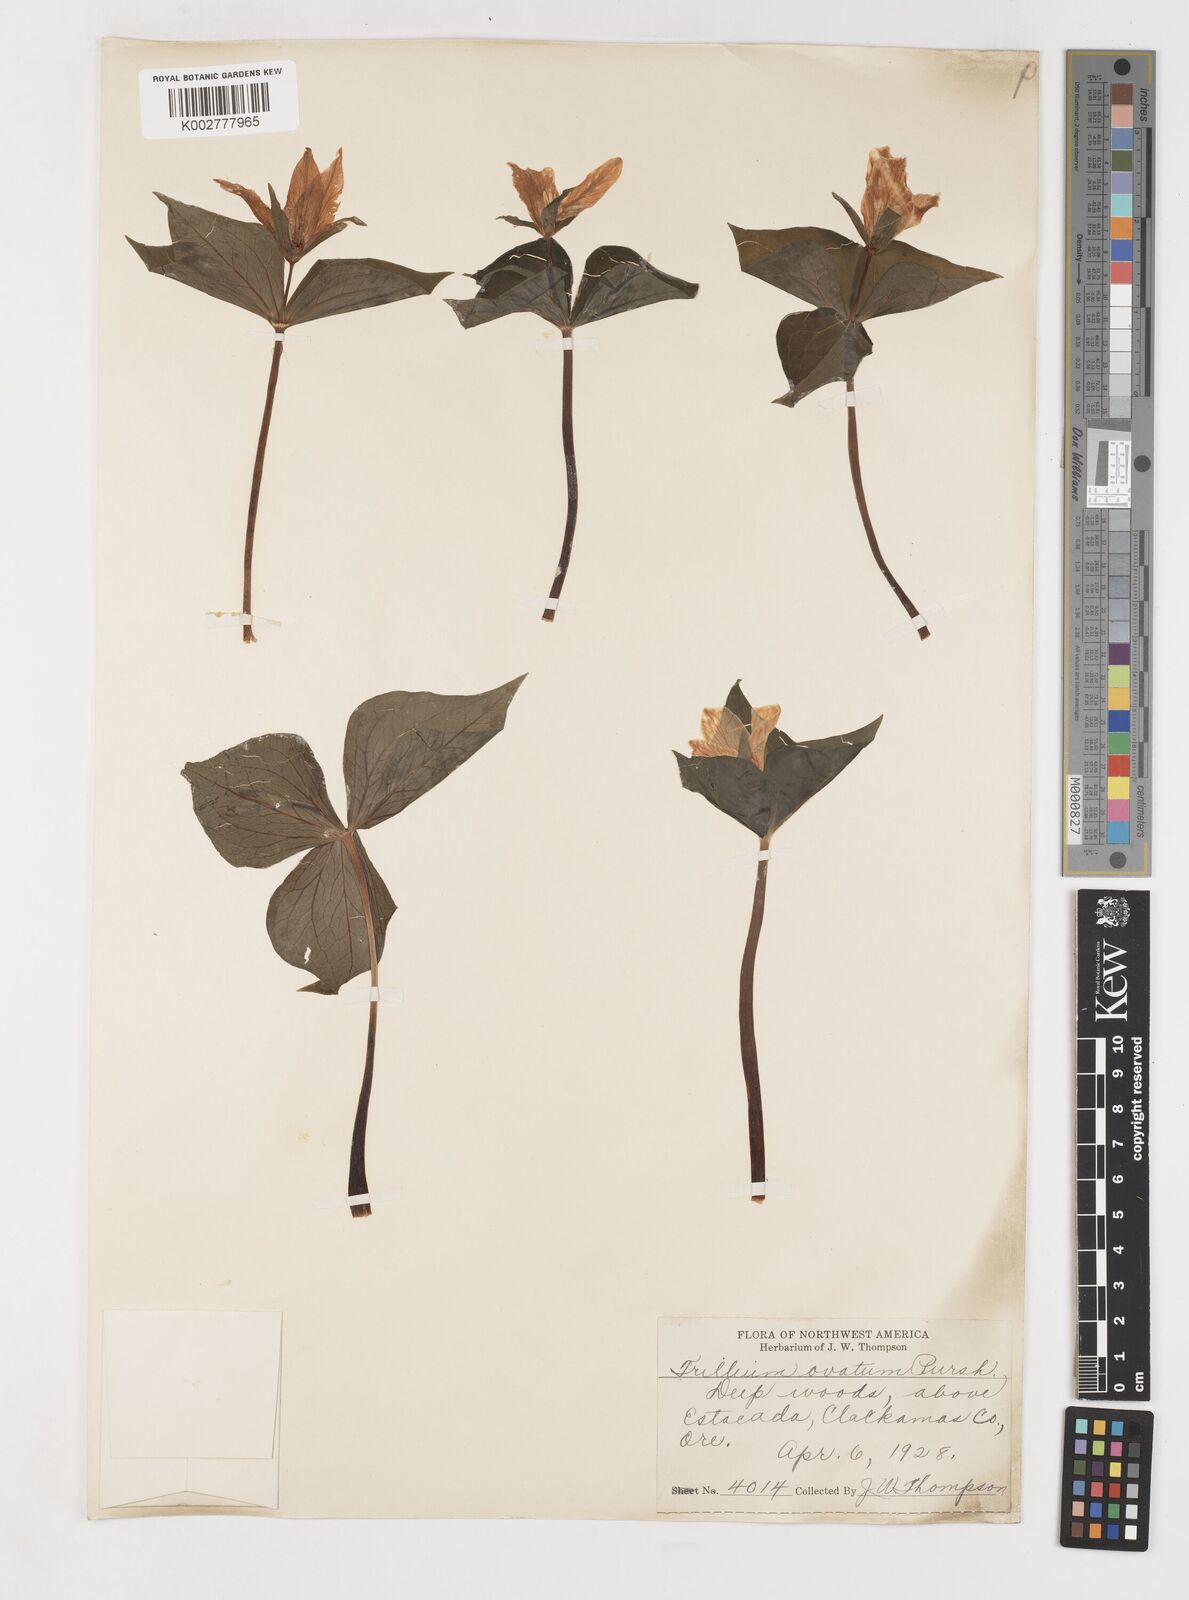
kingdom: Plantae
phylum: Tracheophyta
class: Liliopsida
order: Liliales
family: Melanthiaceae
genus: Trillium
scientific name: Trillium ovatum
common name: Pacific trillium
